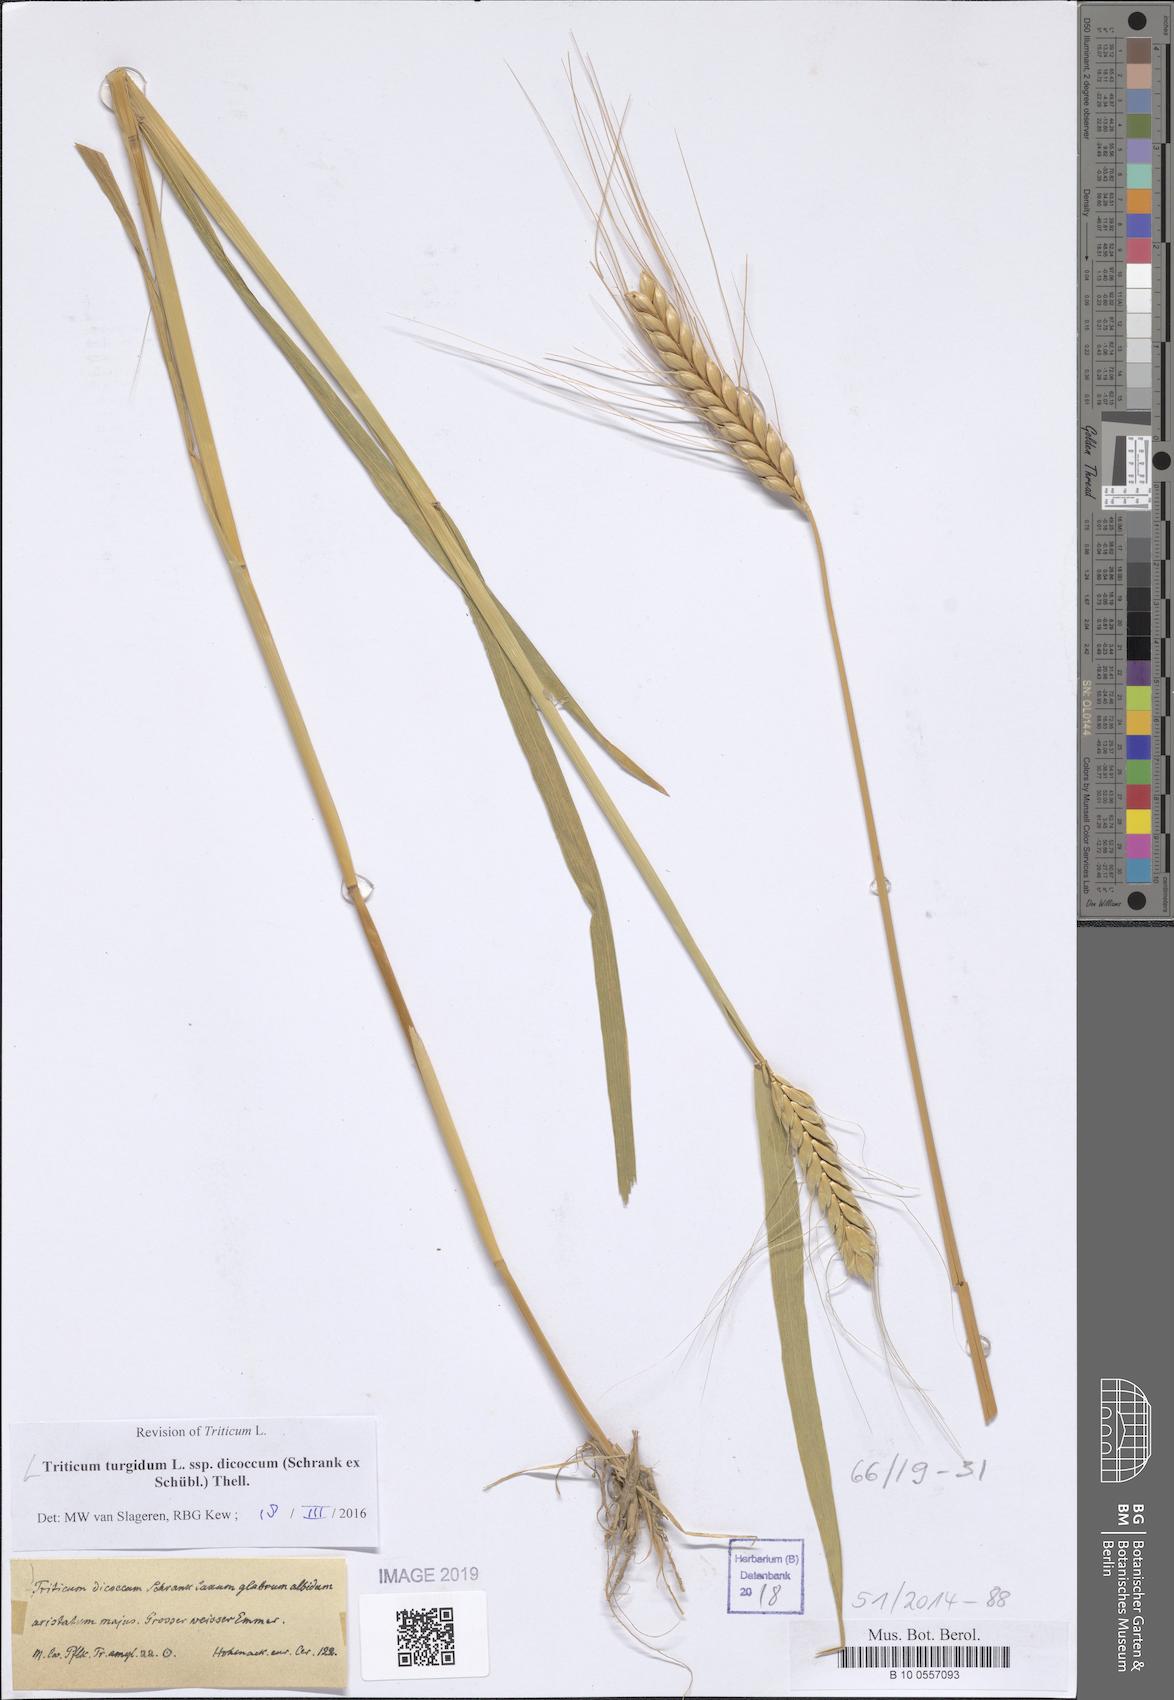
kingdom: Plantae
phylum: Tracheophyta
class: Liliopsida
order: Poales
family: Poaceae
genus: Triticum
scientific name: Triticum turgidum
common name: Rivet wheat
